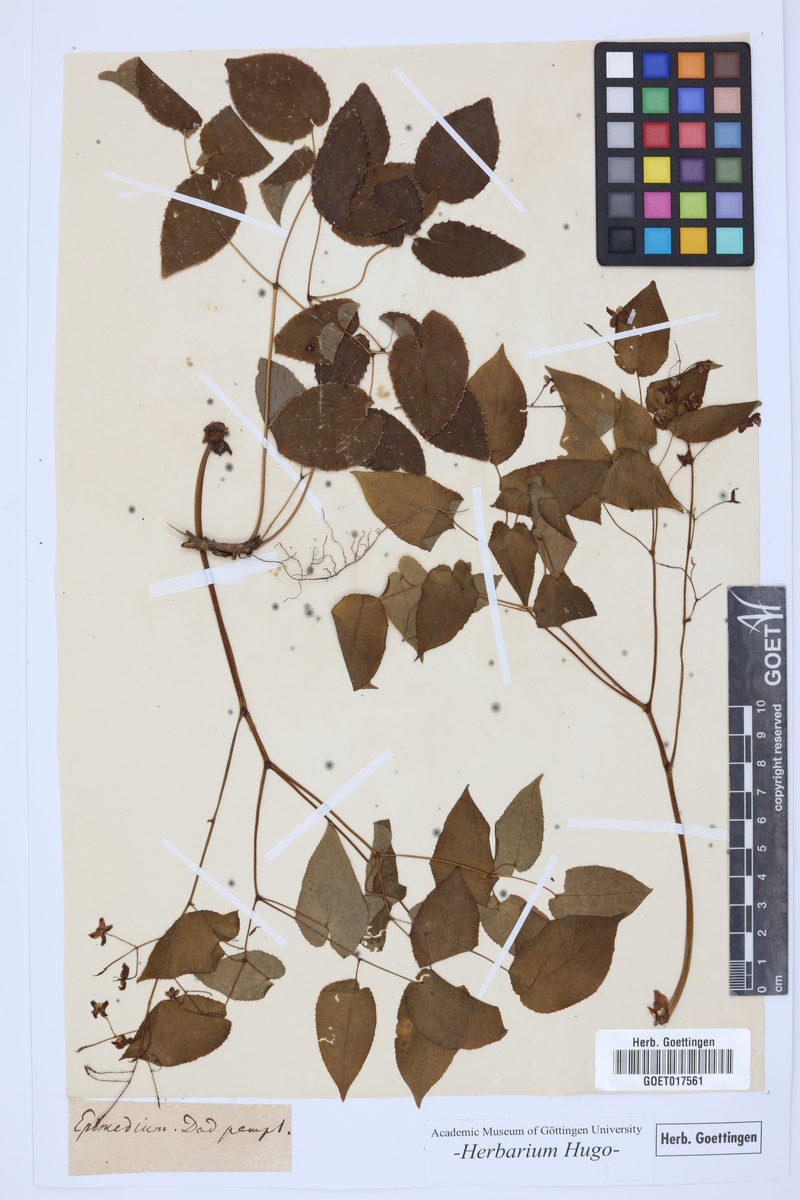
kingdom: Plantae
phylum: Tracheophyta
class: Magnoliopsida
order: Ranunculales
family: Berberidaceae
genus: Epimedium
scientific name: Epimedium alpinum
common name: Barrenwort
